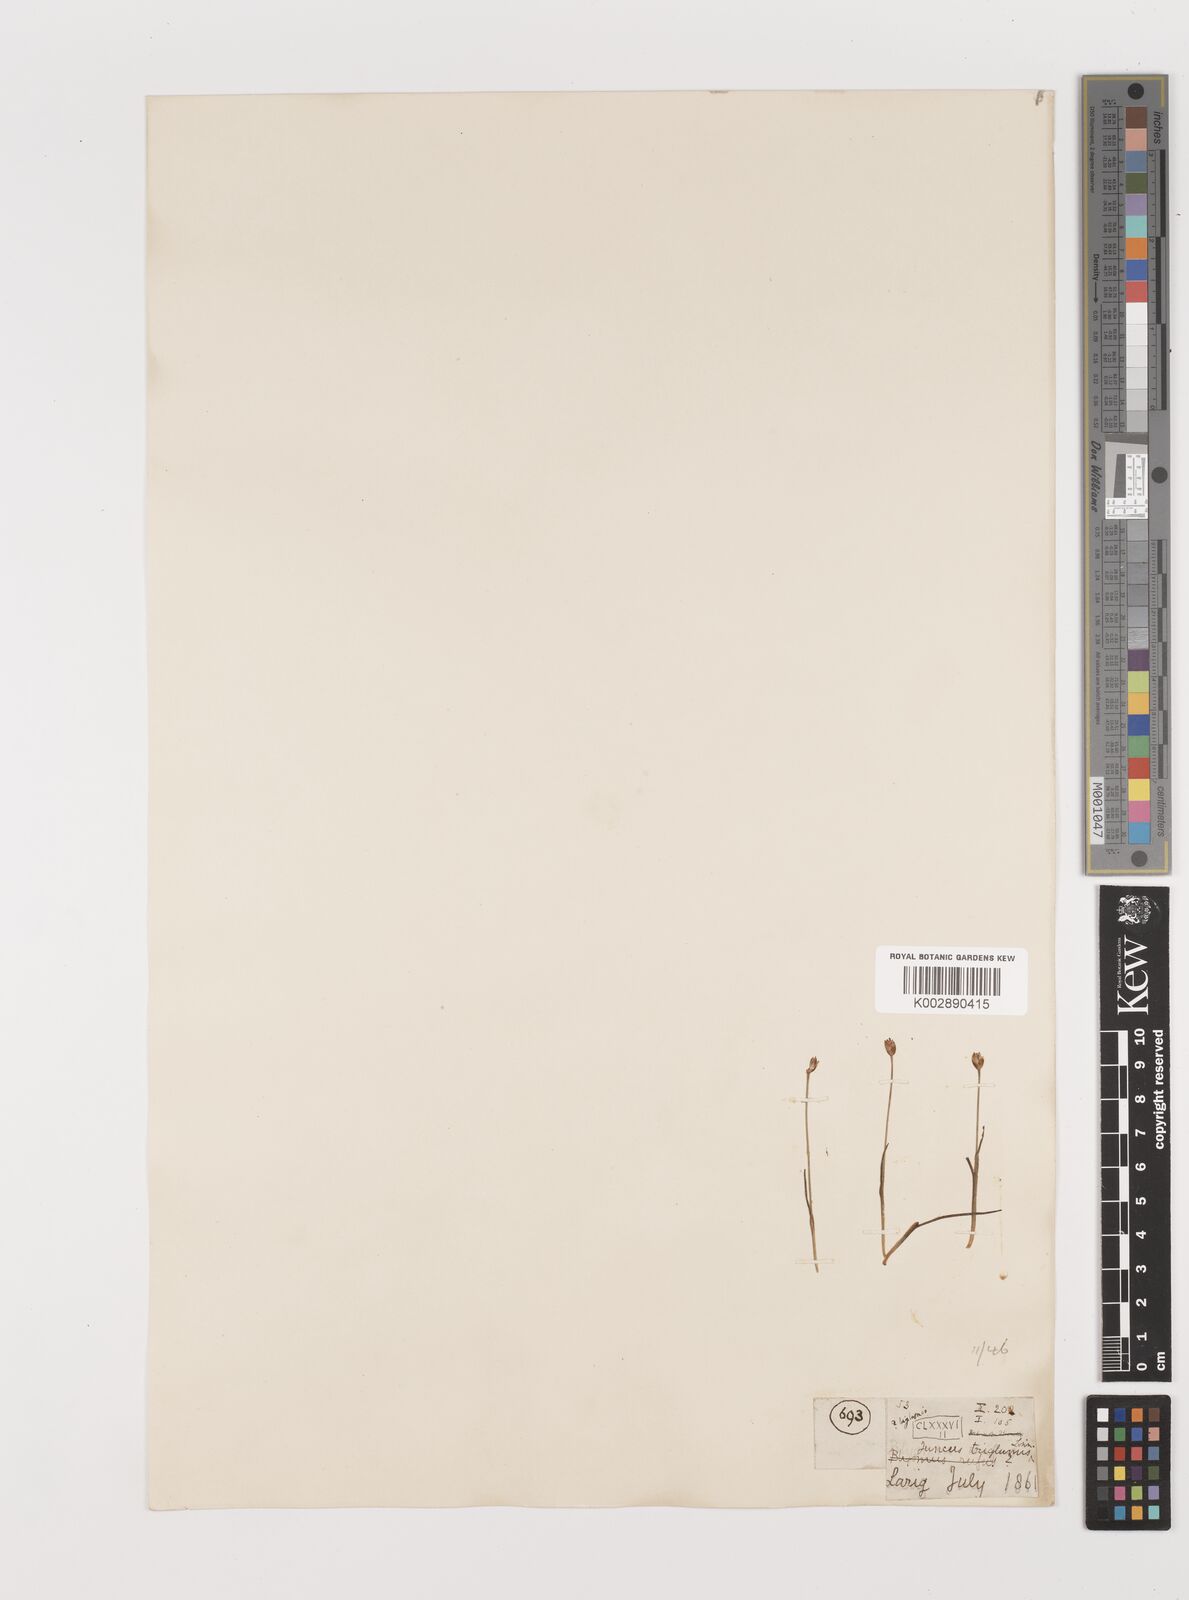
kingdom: Plantae
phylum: Tracheophyta
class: Liliopsida
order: Poales
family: Juncaceae
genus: Juncus
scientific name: Juncus triglumis
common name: Three-flowered rush
